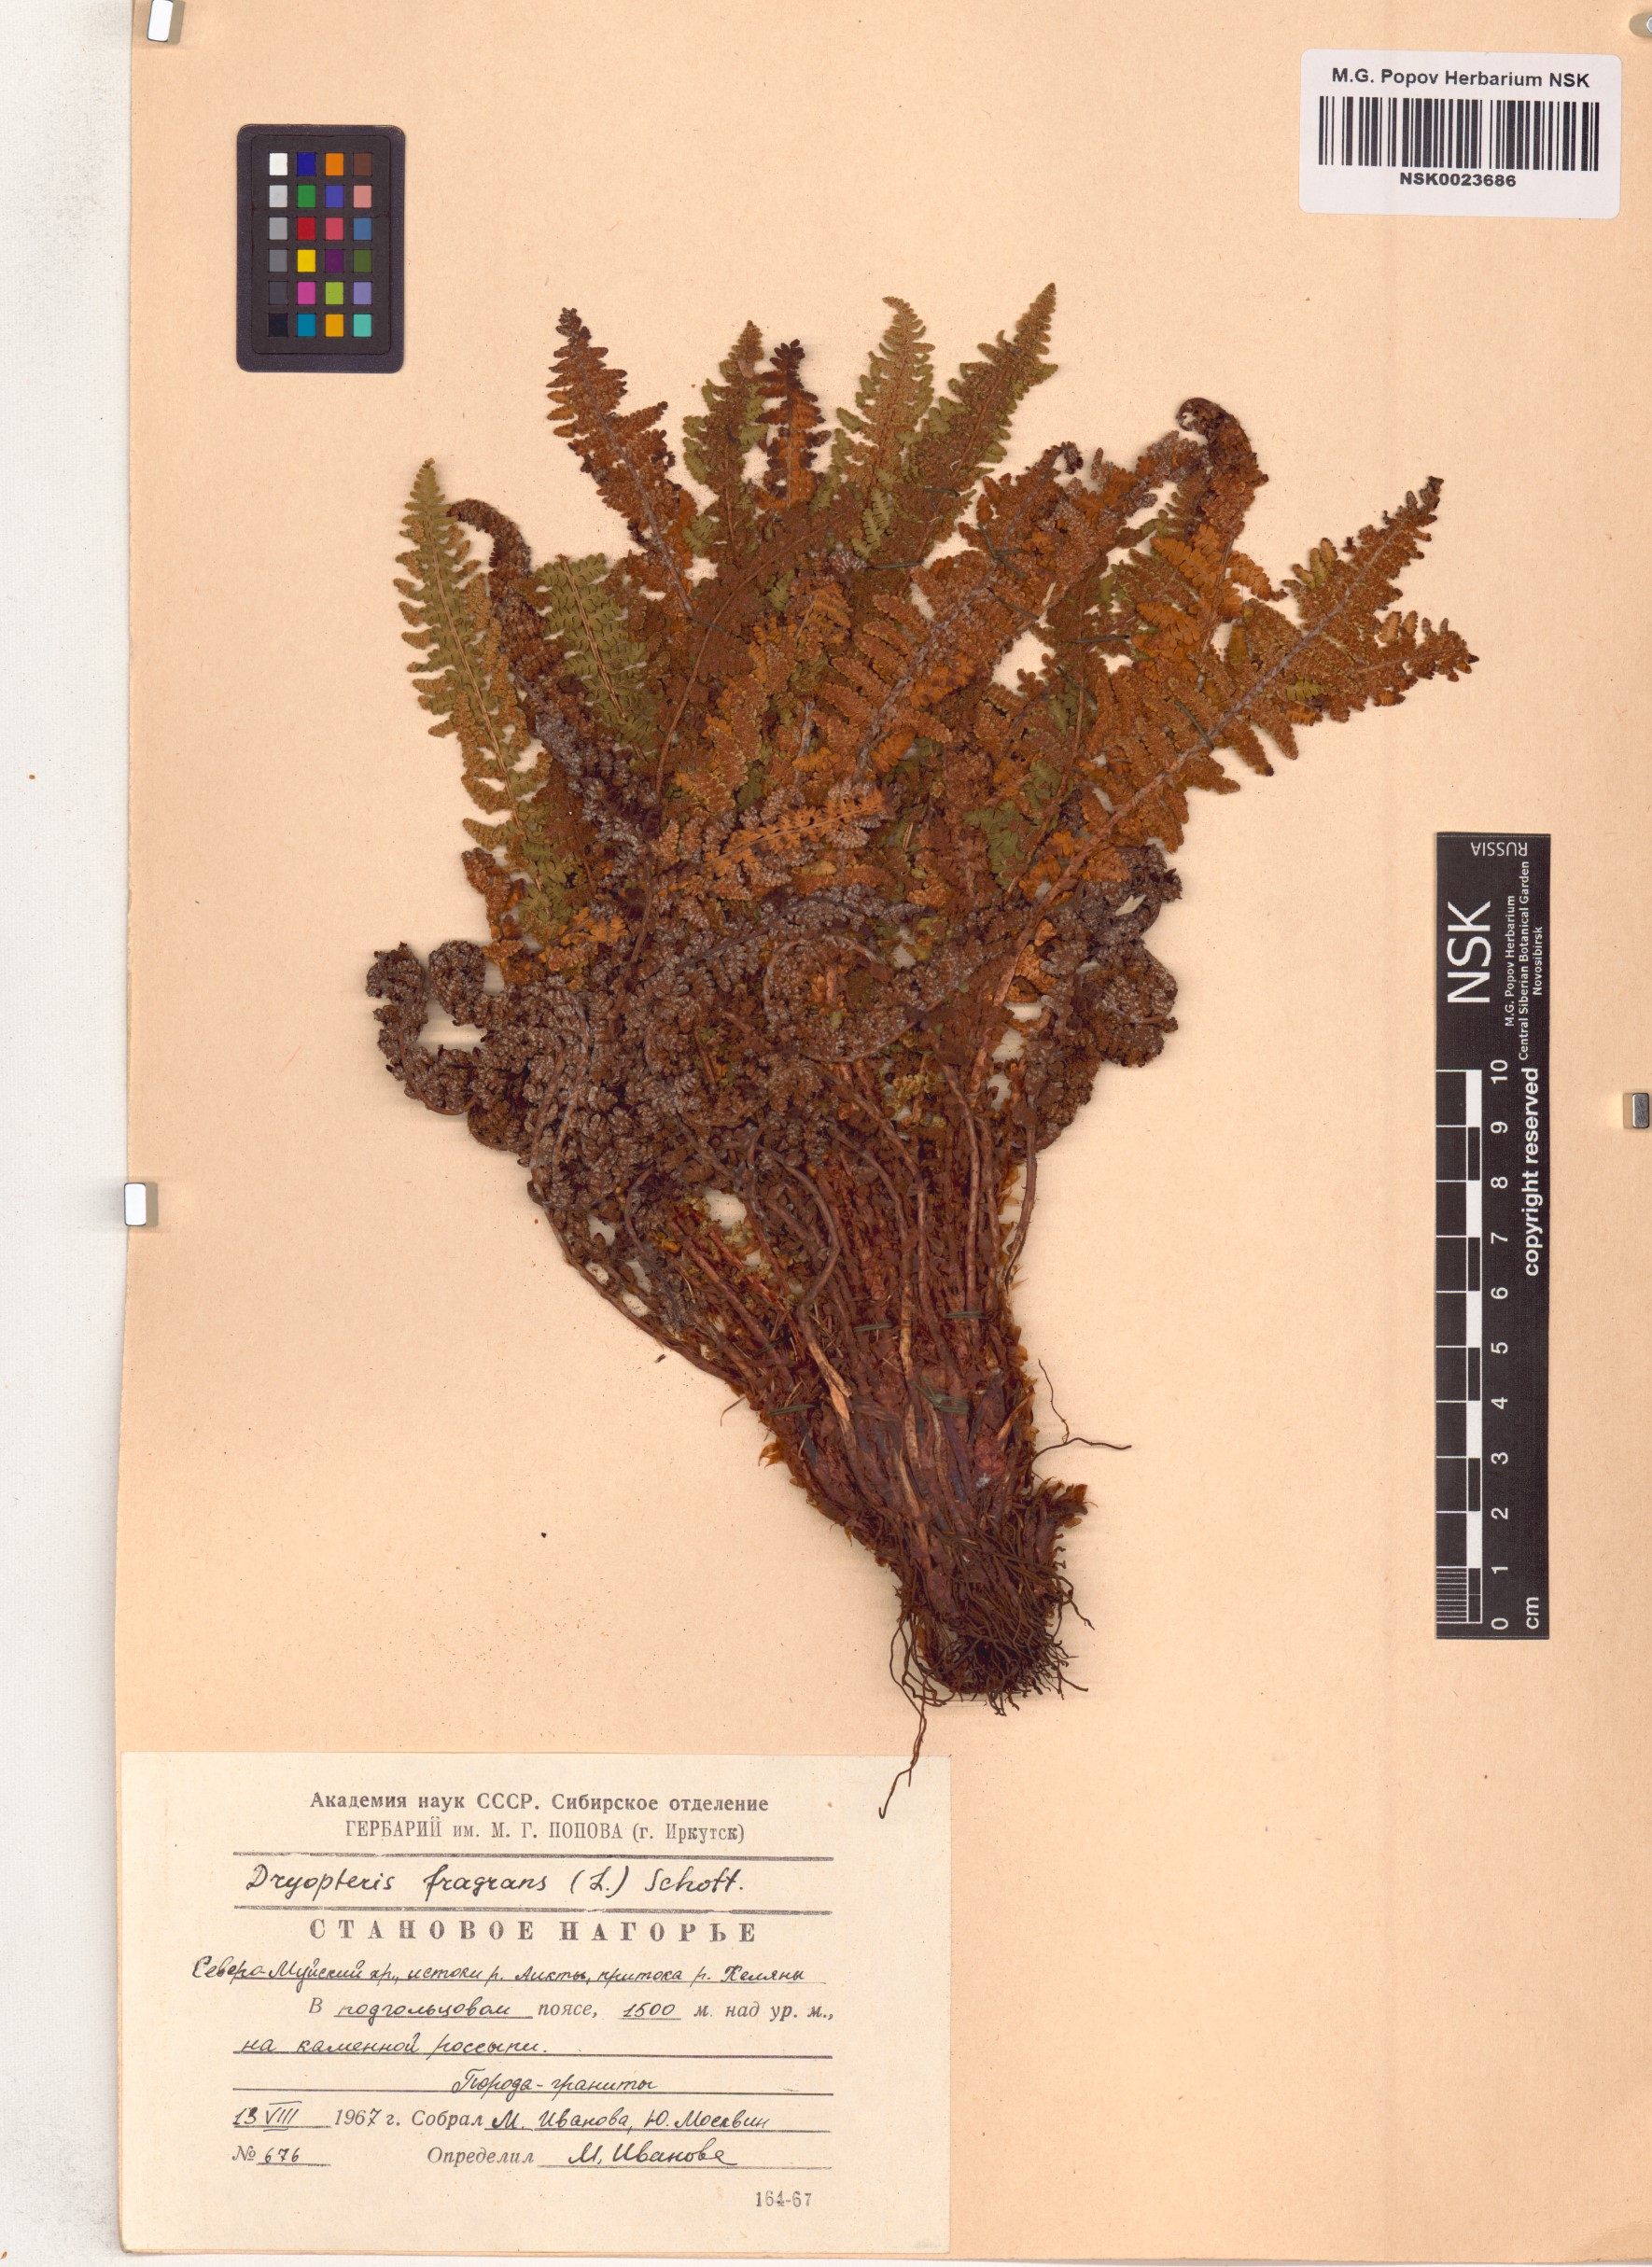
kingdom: Plantae
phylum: Tracheophyta
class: Polypodiopsida
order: Polypodiales
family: Dryopteridaceae
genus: Dryopteris
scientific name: Dryopteris fragrans
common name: Fragrant wood fern
